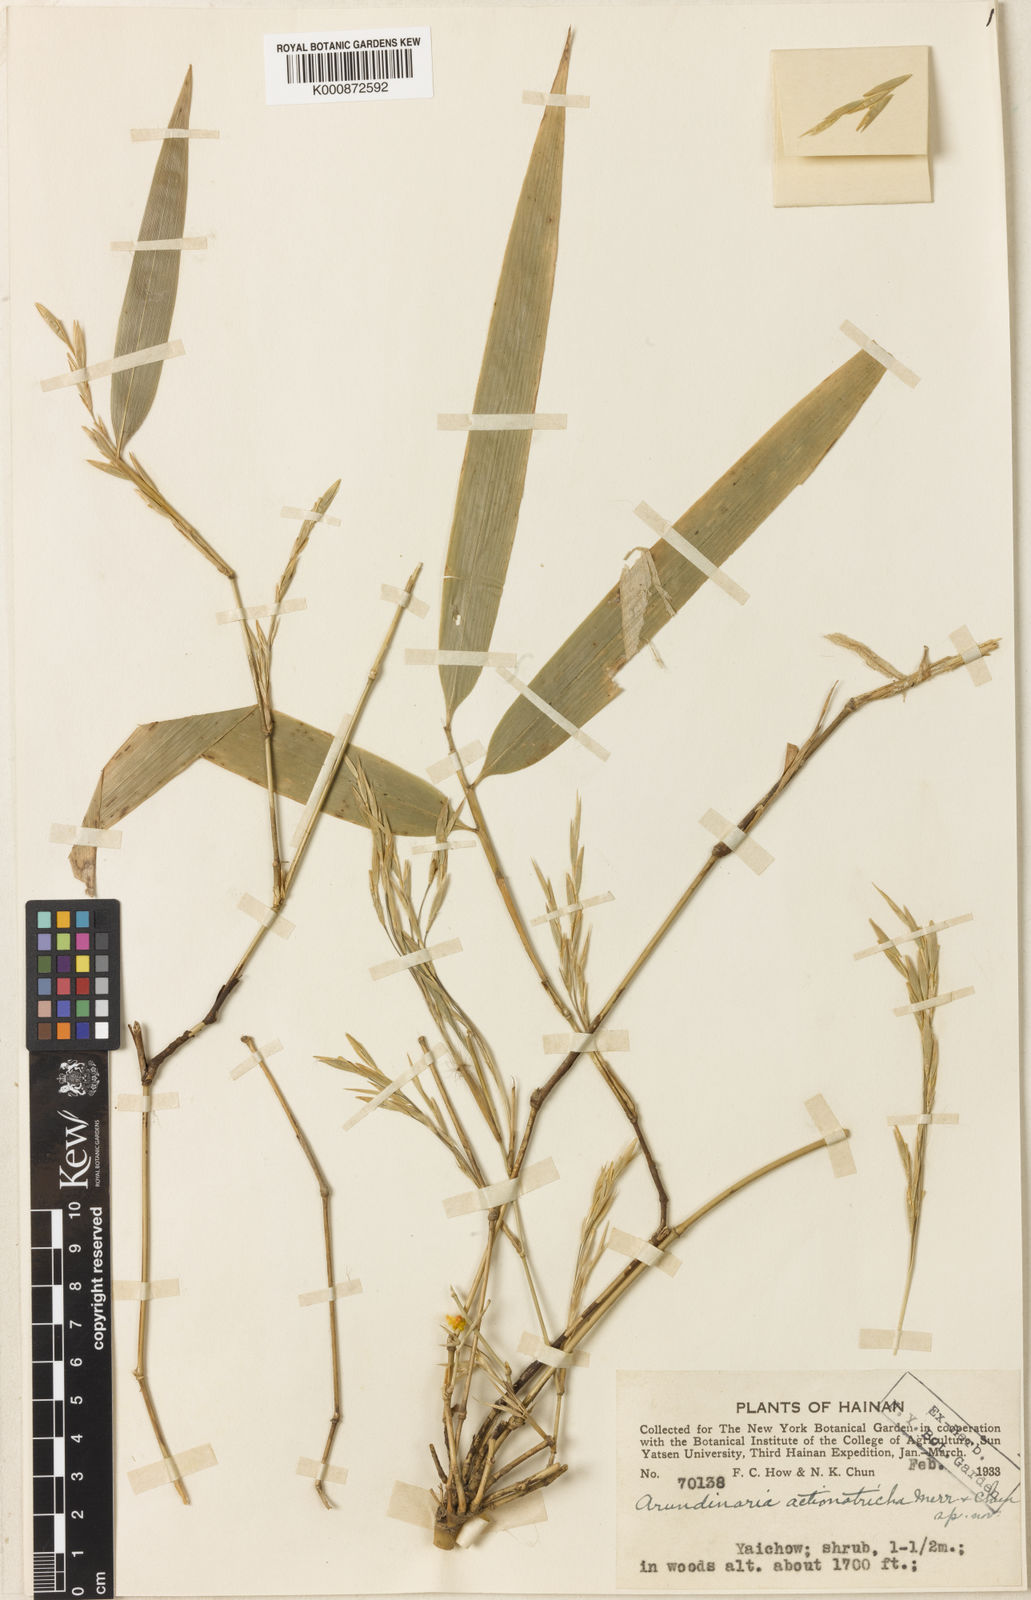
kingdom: Plantae
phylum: Tracheophyta
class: Liliopsida
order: Poales
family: Poaceae
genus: Ampelocalamus
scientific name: Ampelocalamus actinotrichus
